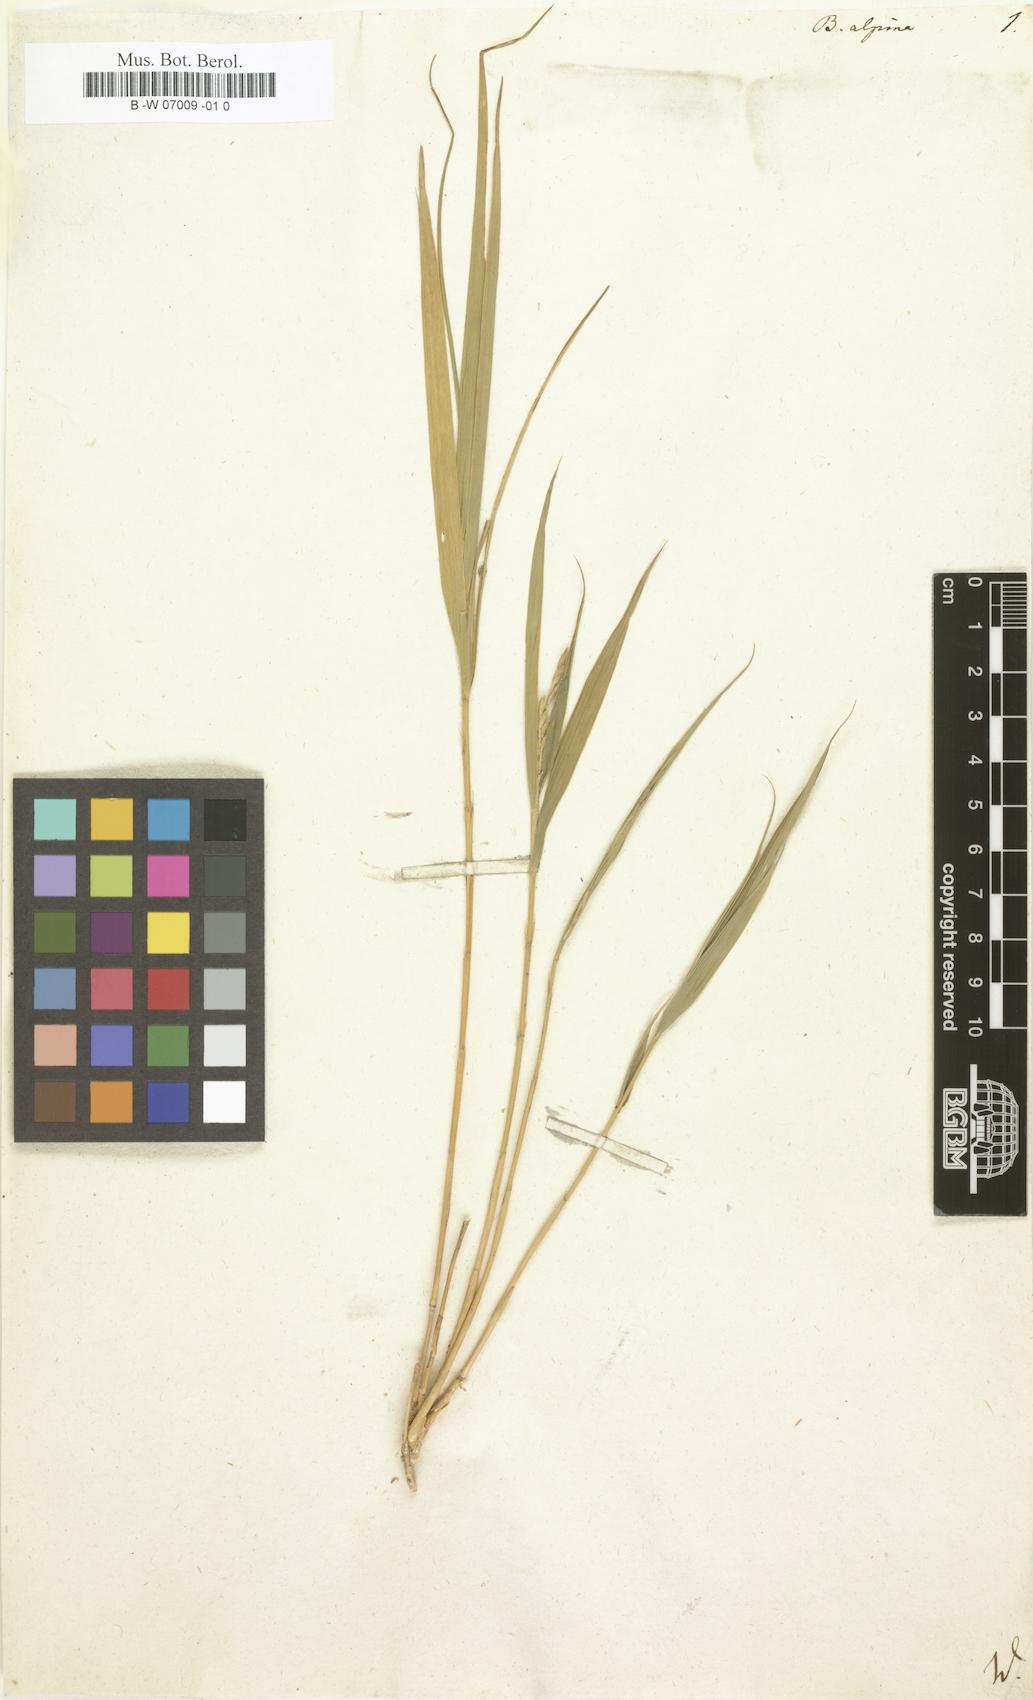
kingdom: Plantae
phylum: Tracheophyta
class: Liliopsida
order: Poales
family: Poaceae
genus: Nastus
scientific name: Nastus borbonicus
